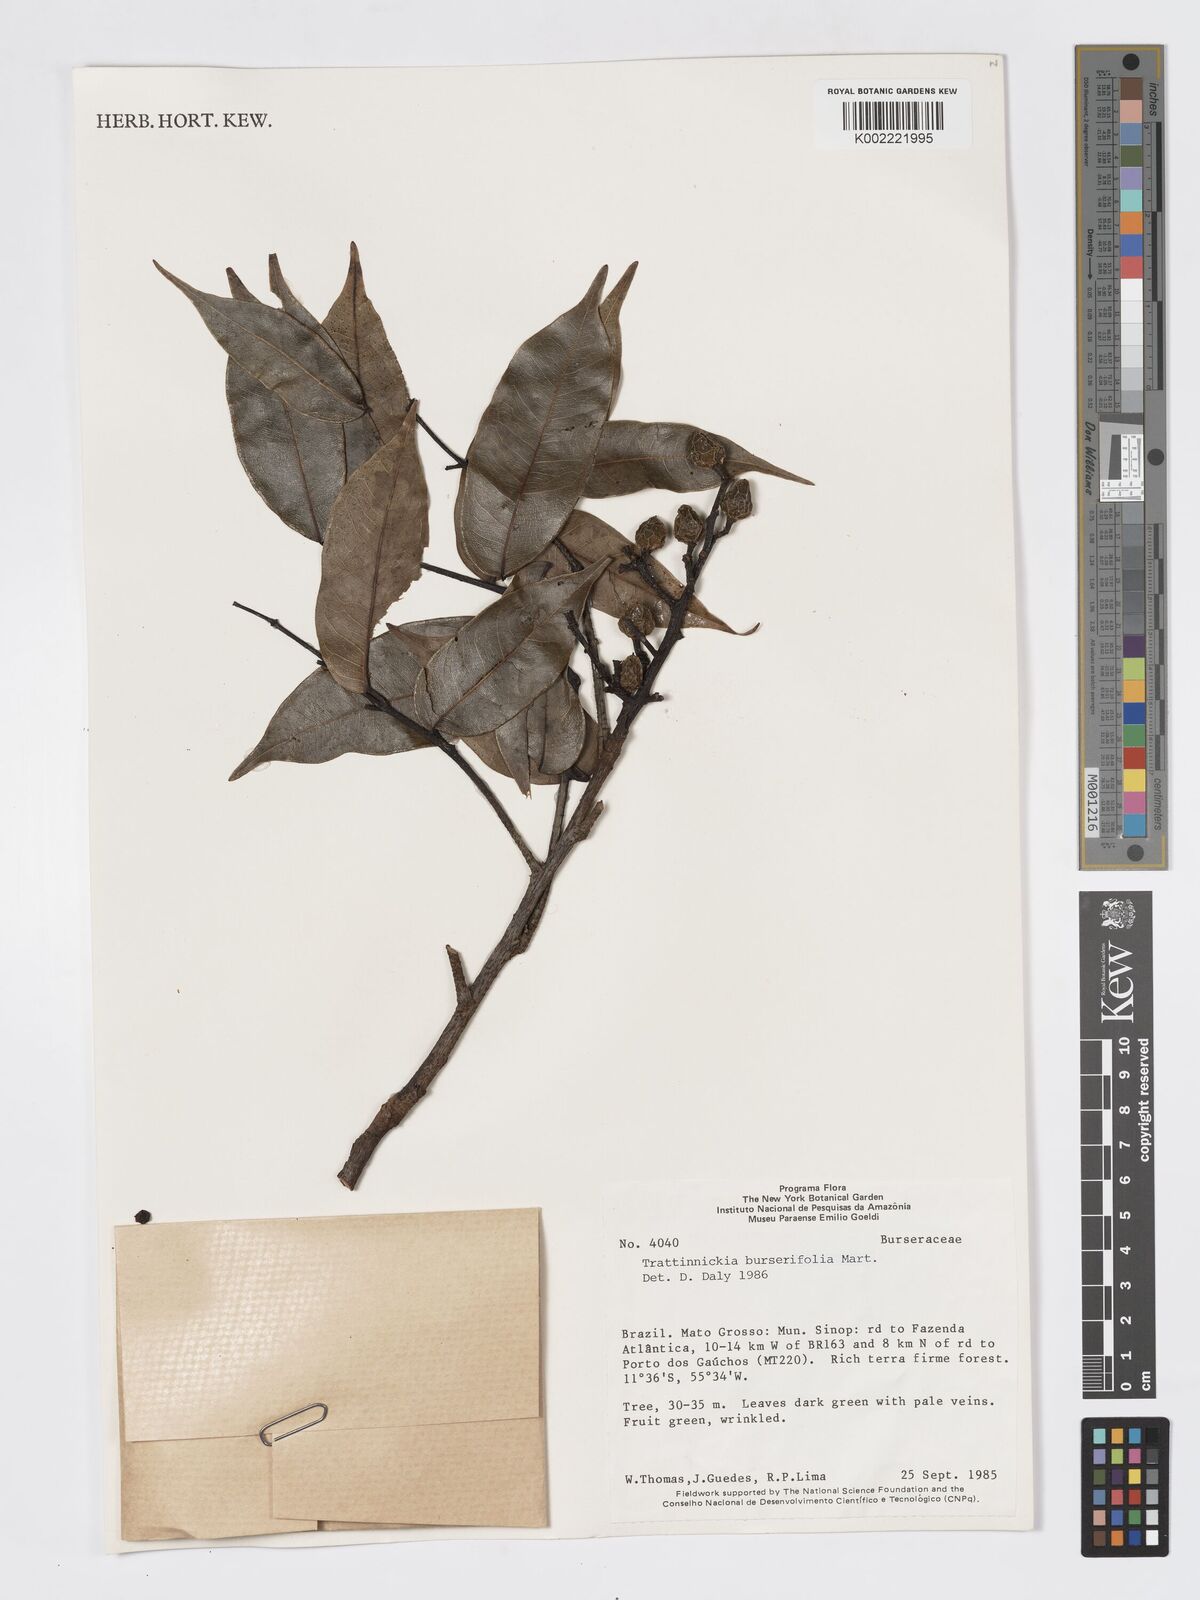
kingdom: Plantae
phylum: Tracheophyta
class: Magnoliopsida
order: Sapindales
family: Burseraceae
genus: Trattinnickia
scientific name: Trattinnickia burserifolia
